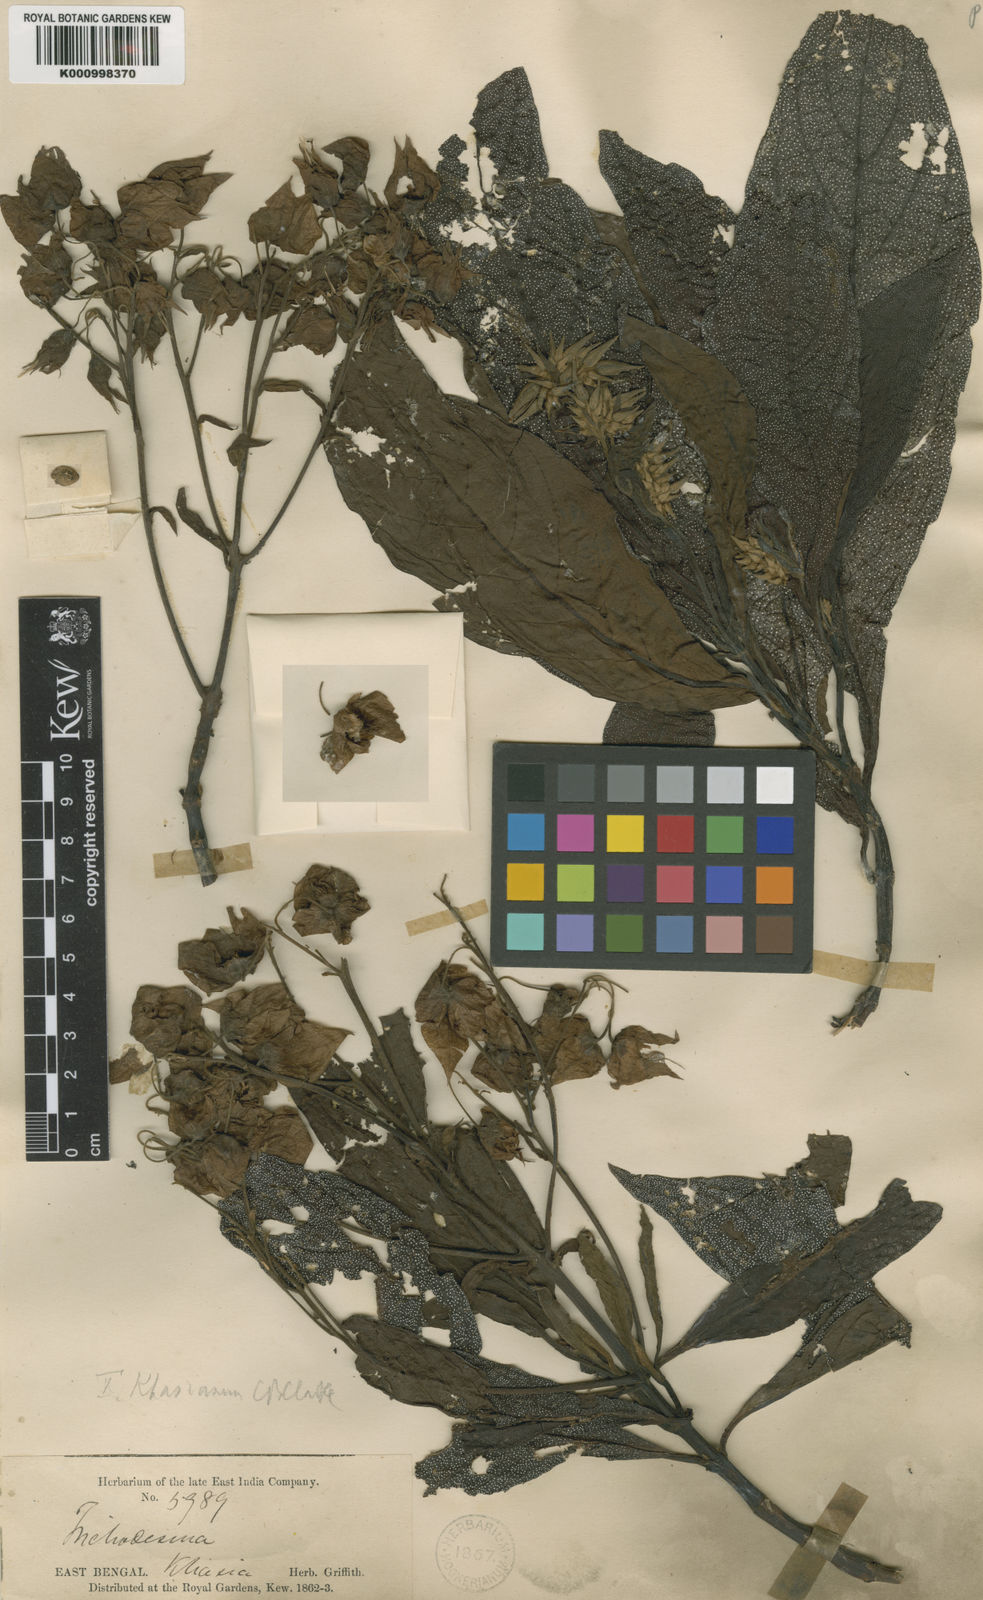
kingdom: Plantae
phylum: Tracheophyta
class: Magnoliopsida
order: Boraginales
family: Boraginaceae
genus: Trichodesma
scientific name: Trichodesma khasianum
